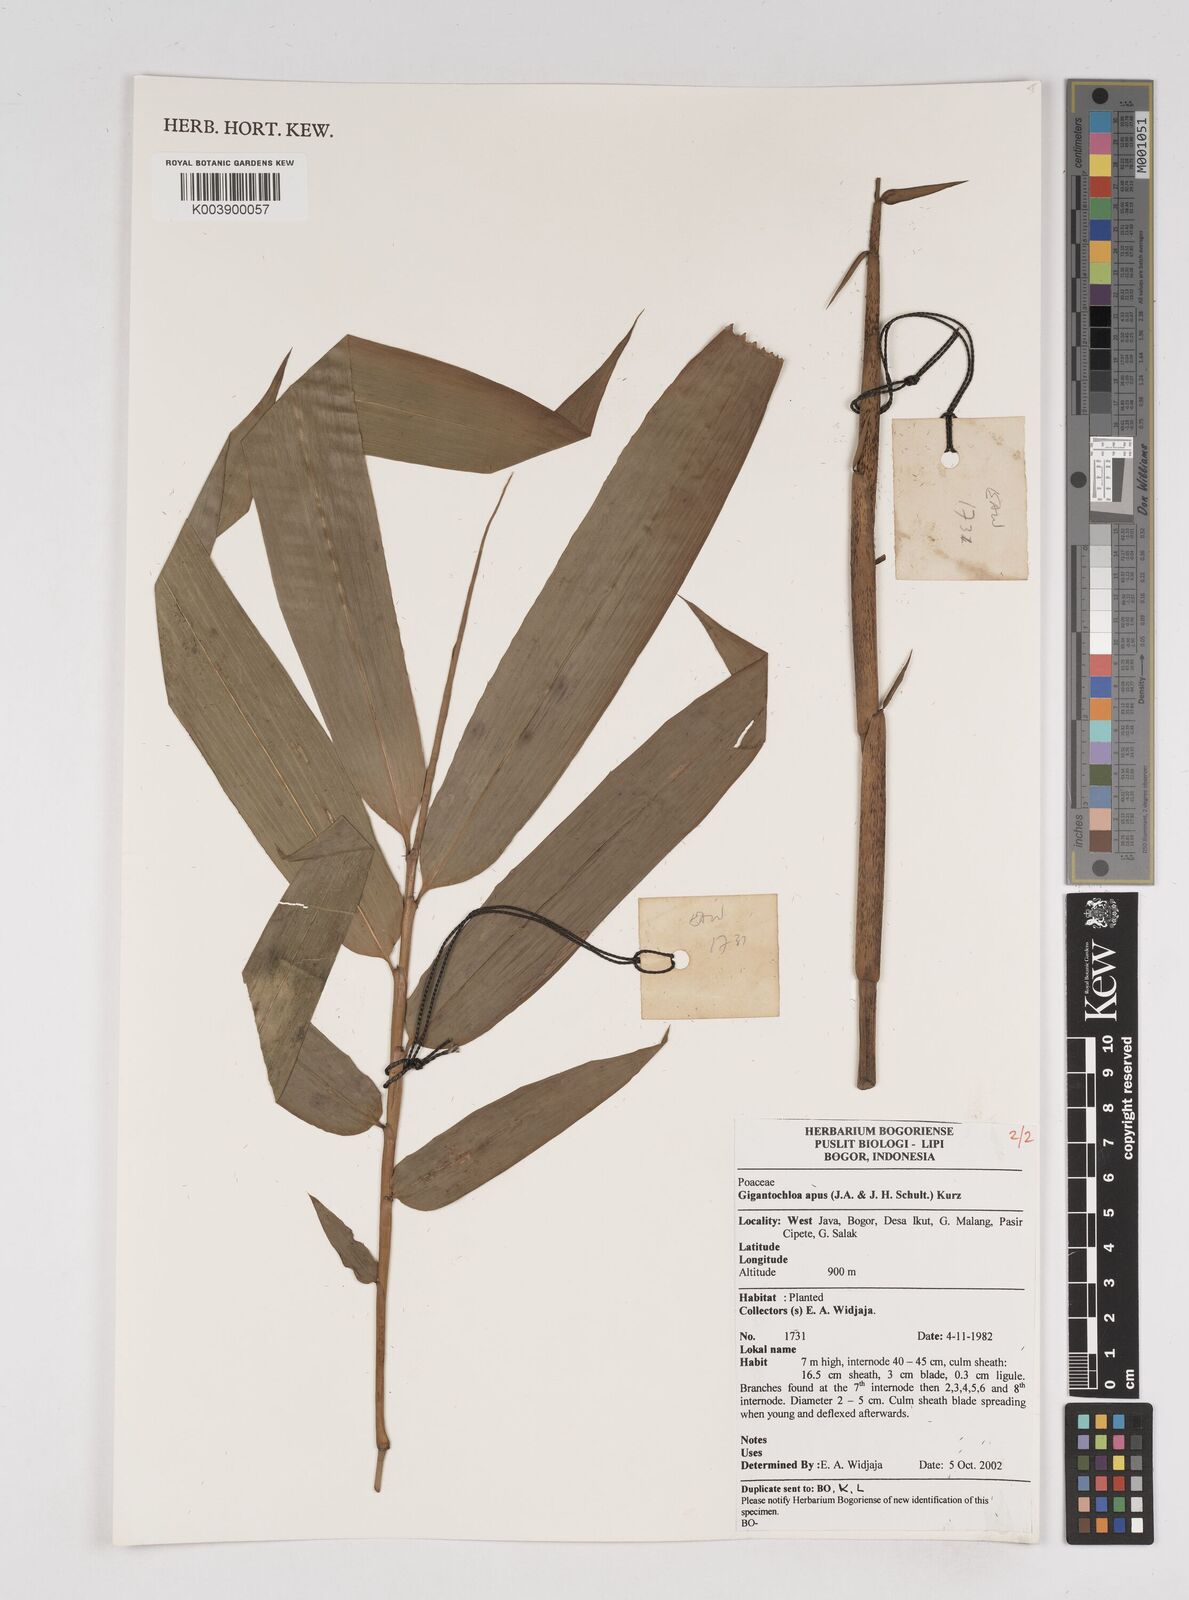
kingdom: Plantae
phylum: Tracheophyta
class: Liliopsida
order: Poales
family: Poaceae
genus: Gigantochloa
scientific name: Gigantochloa apus
